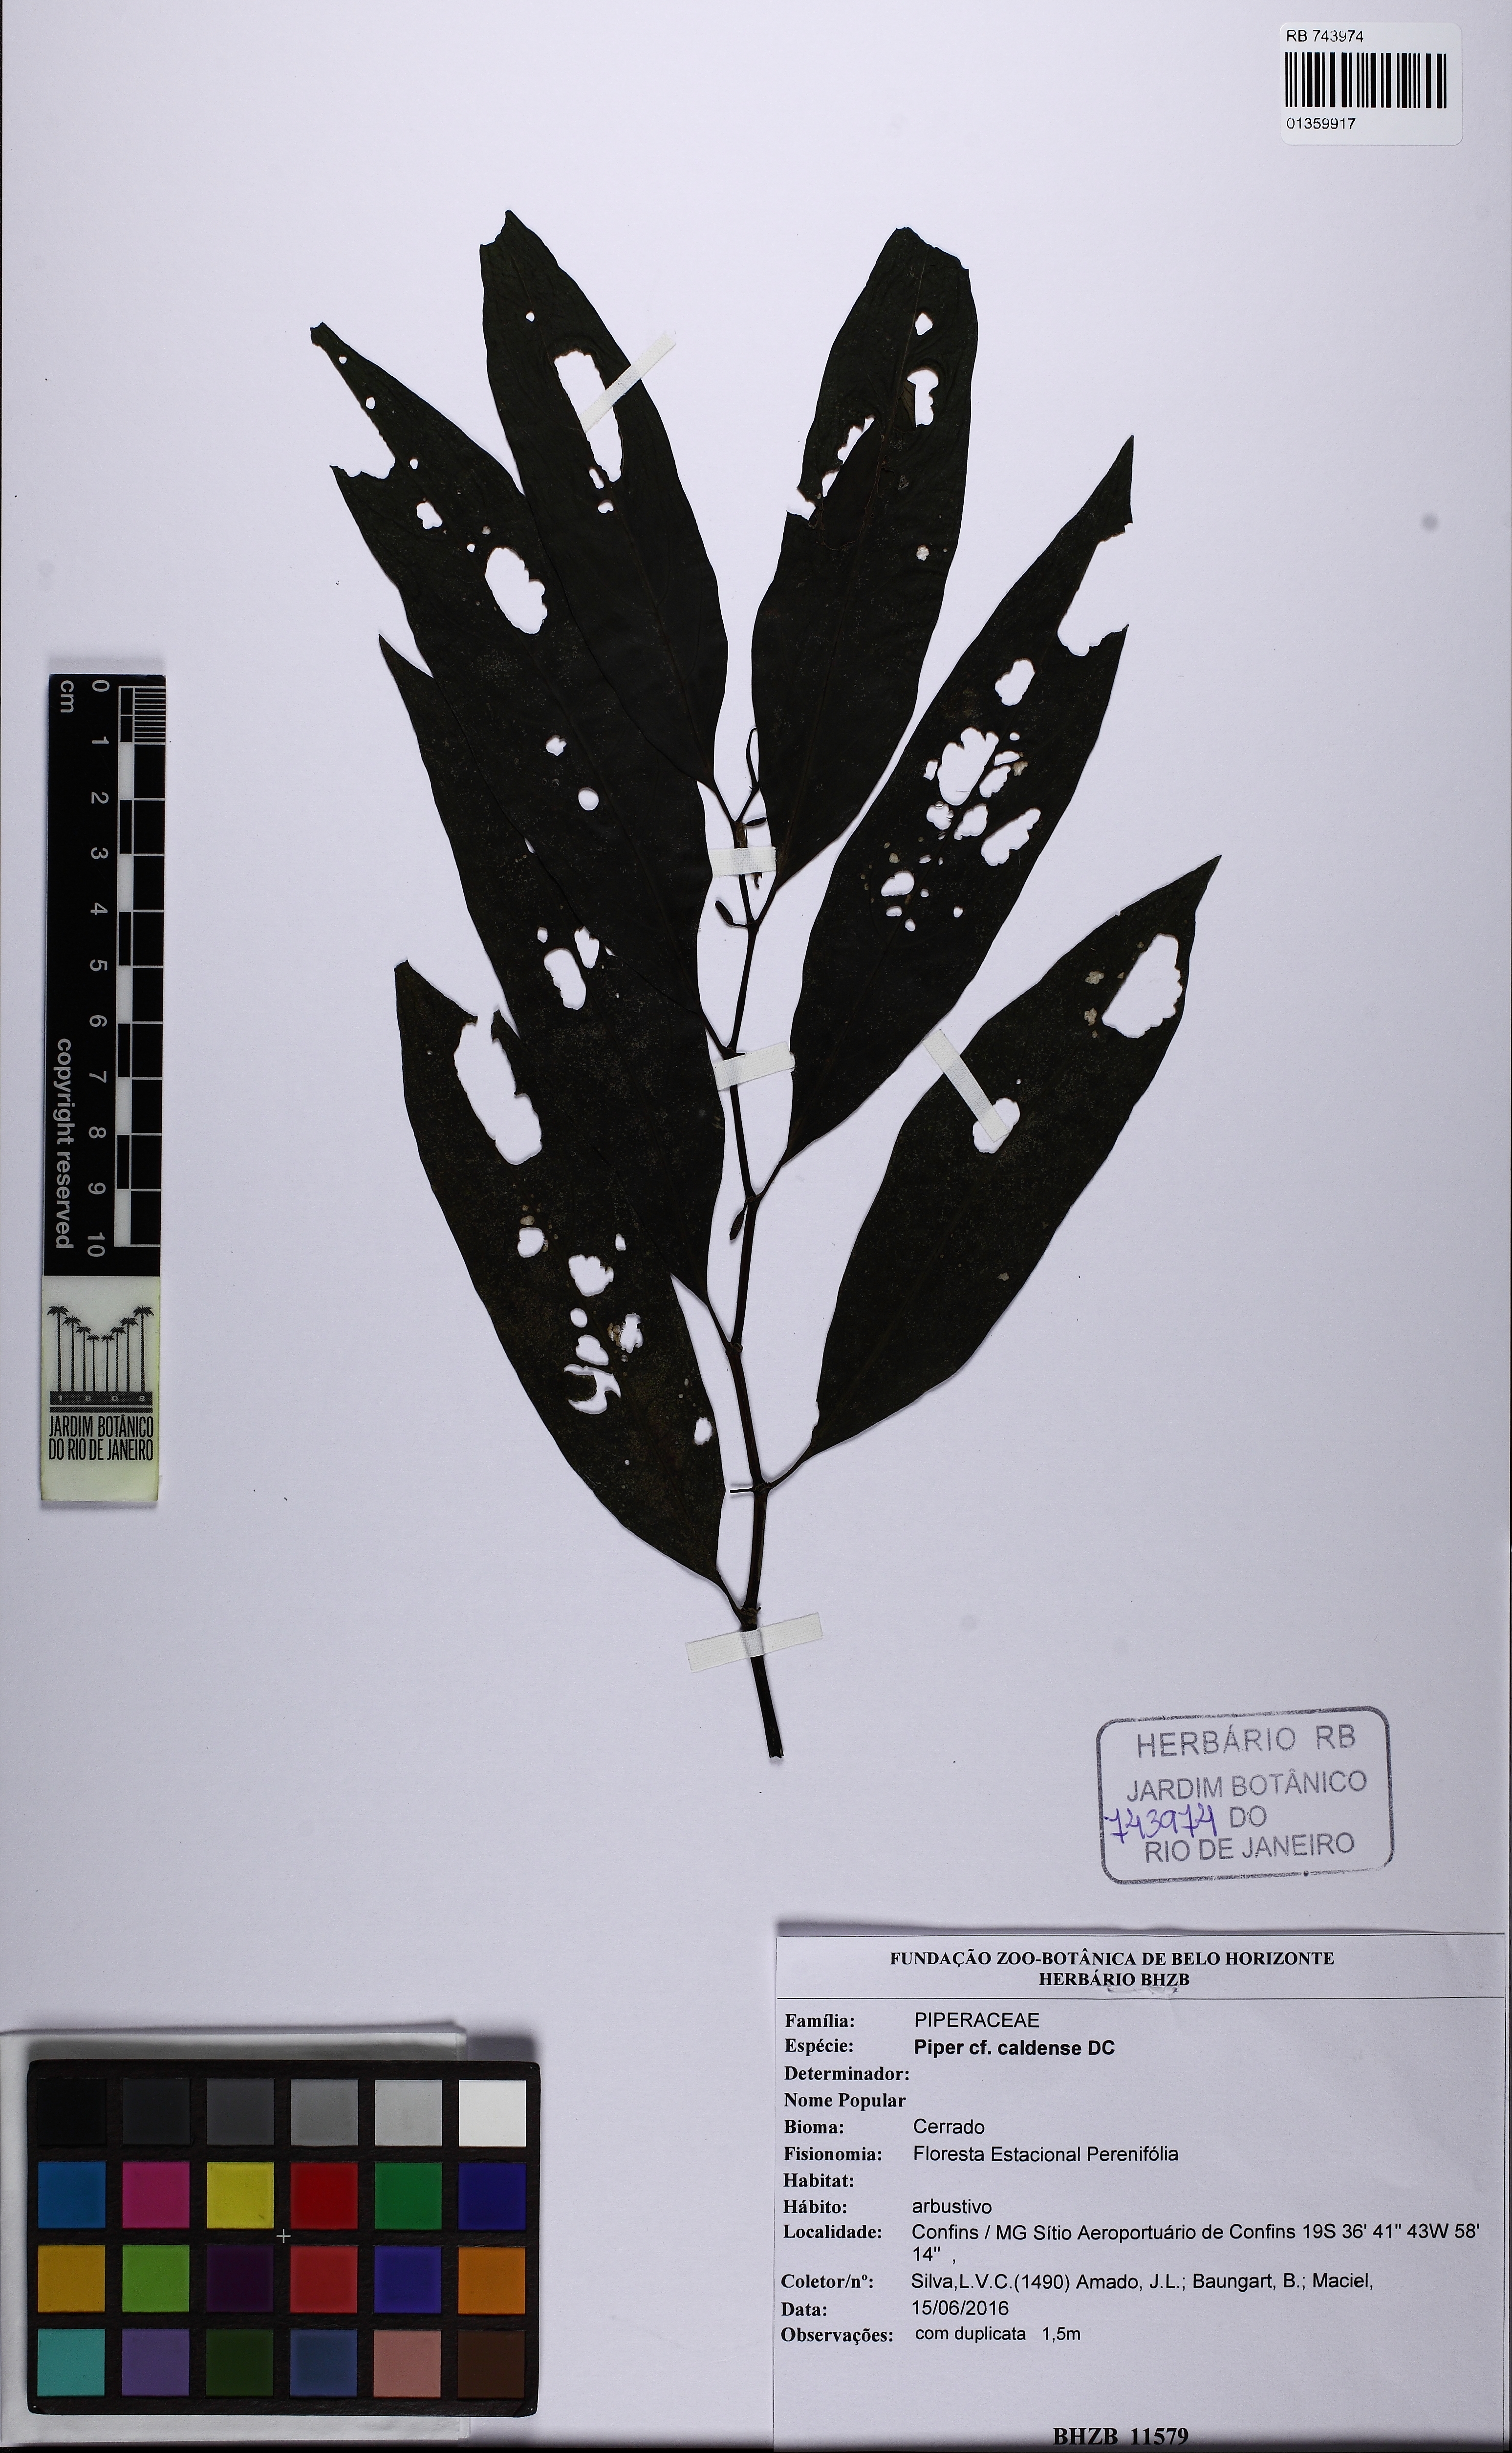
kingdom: Plantae
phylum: Tracheophyta
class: Magnoliopsida
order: Piperales
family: Piperaceae
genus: Piper
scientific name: Piper caldense
